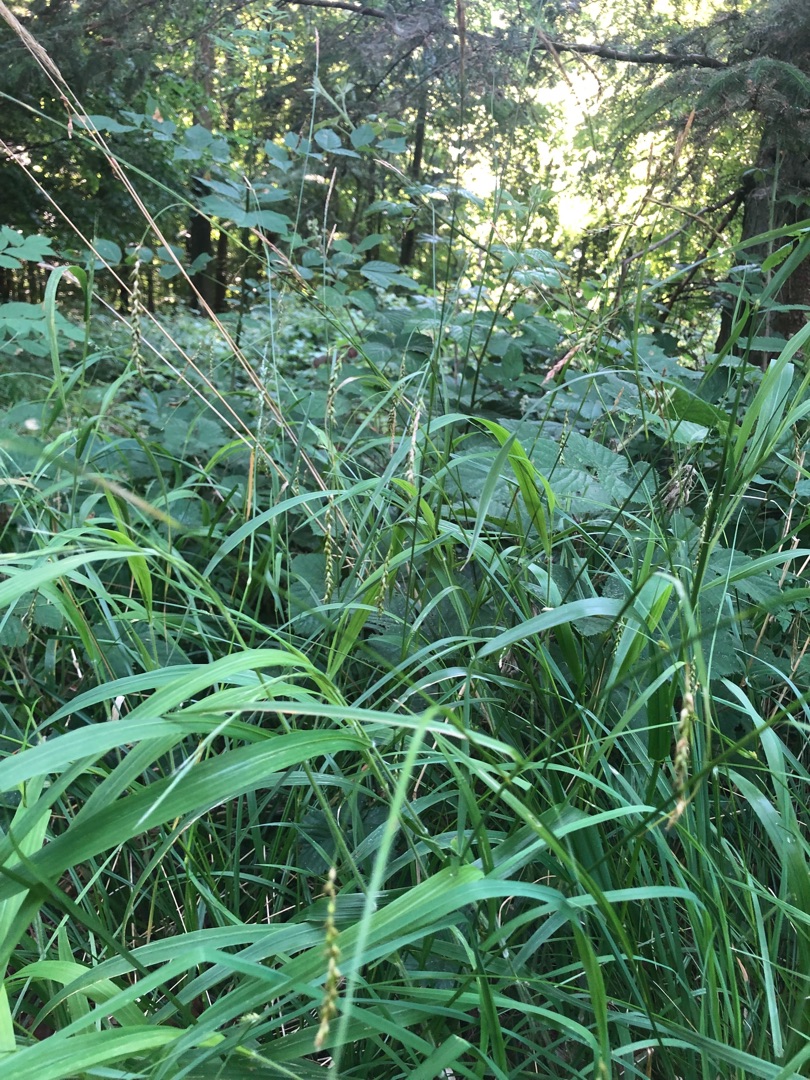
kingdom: Plantae
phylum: Tracheophyta
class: Liliopsida
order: Poales
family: Cyperaceae
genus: Carex
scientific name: Carex sylvatica
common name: Skov-star
